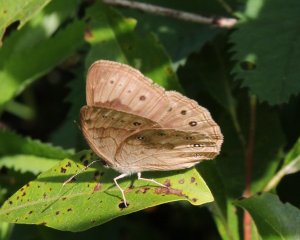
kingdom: Animalia
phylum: Arthropoda
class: Insecta
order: Lepidoptera
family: Nymphalidae
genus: Lethe
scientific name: Lethe eurydice
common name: Eyed Brown
